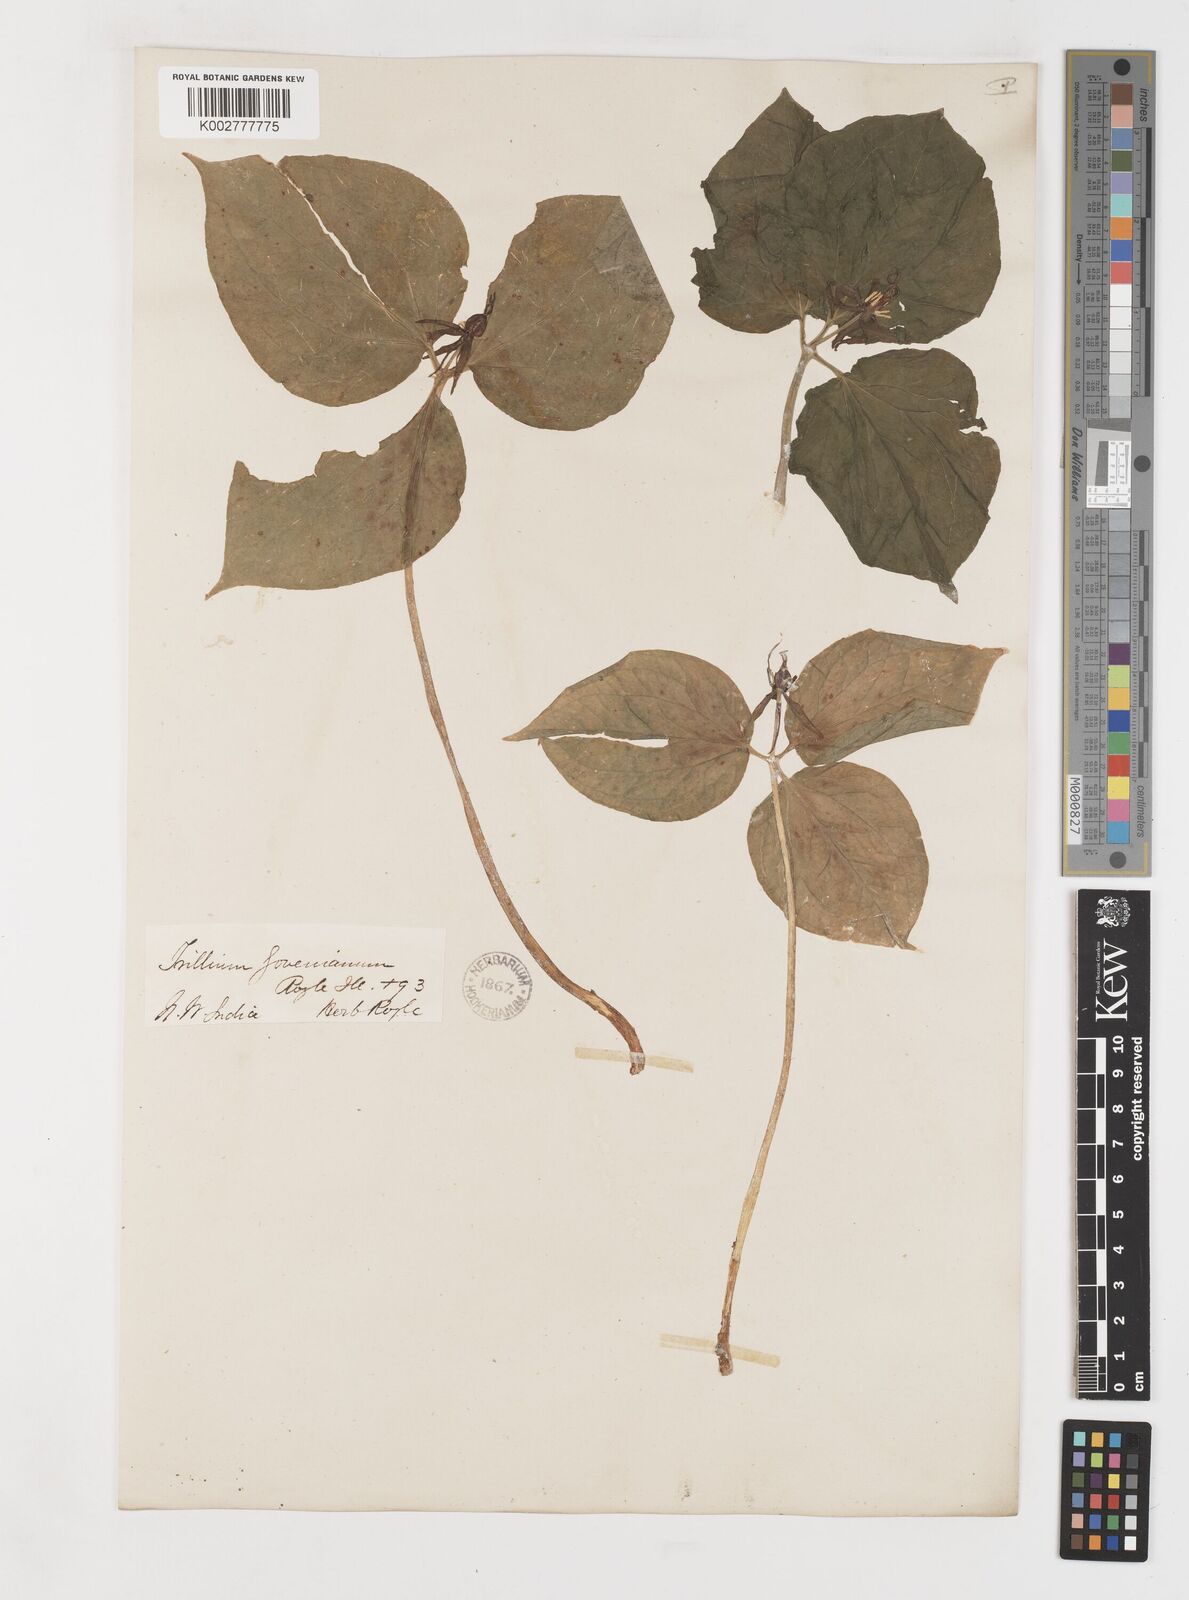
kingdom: Plantae
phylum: Tracheophyta
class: Liliopsida
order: Liliales
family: Melanthiaceae
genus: Trillium
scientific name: Trillium govanianum
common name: Himalayan trillium
